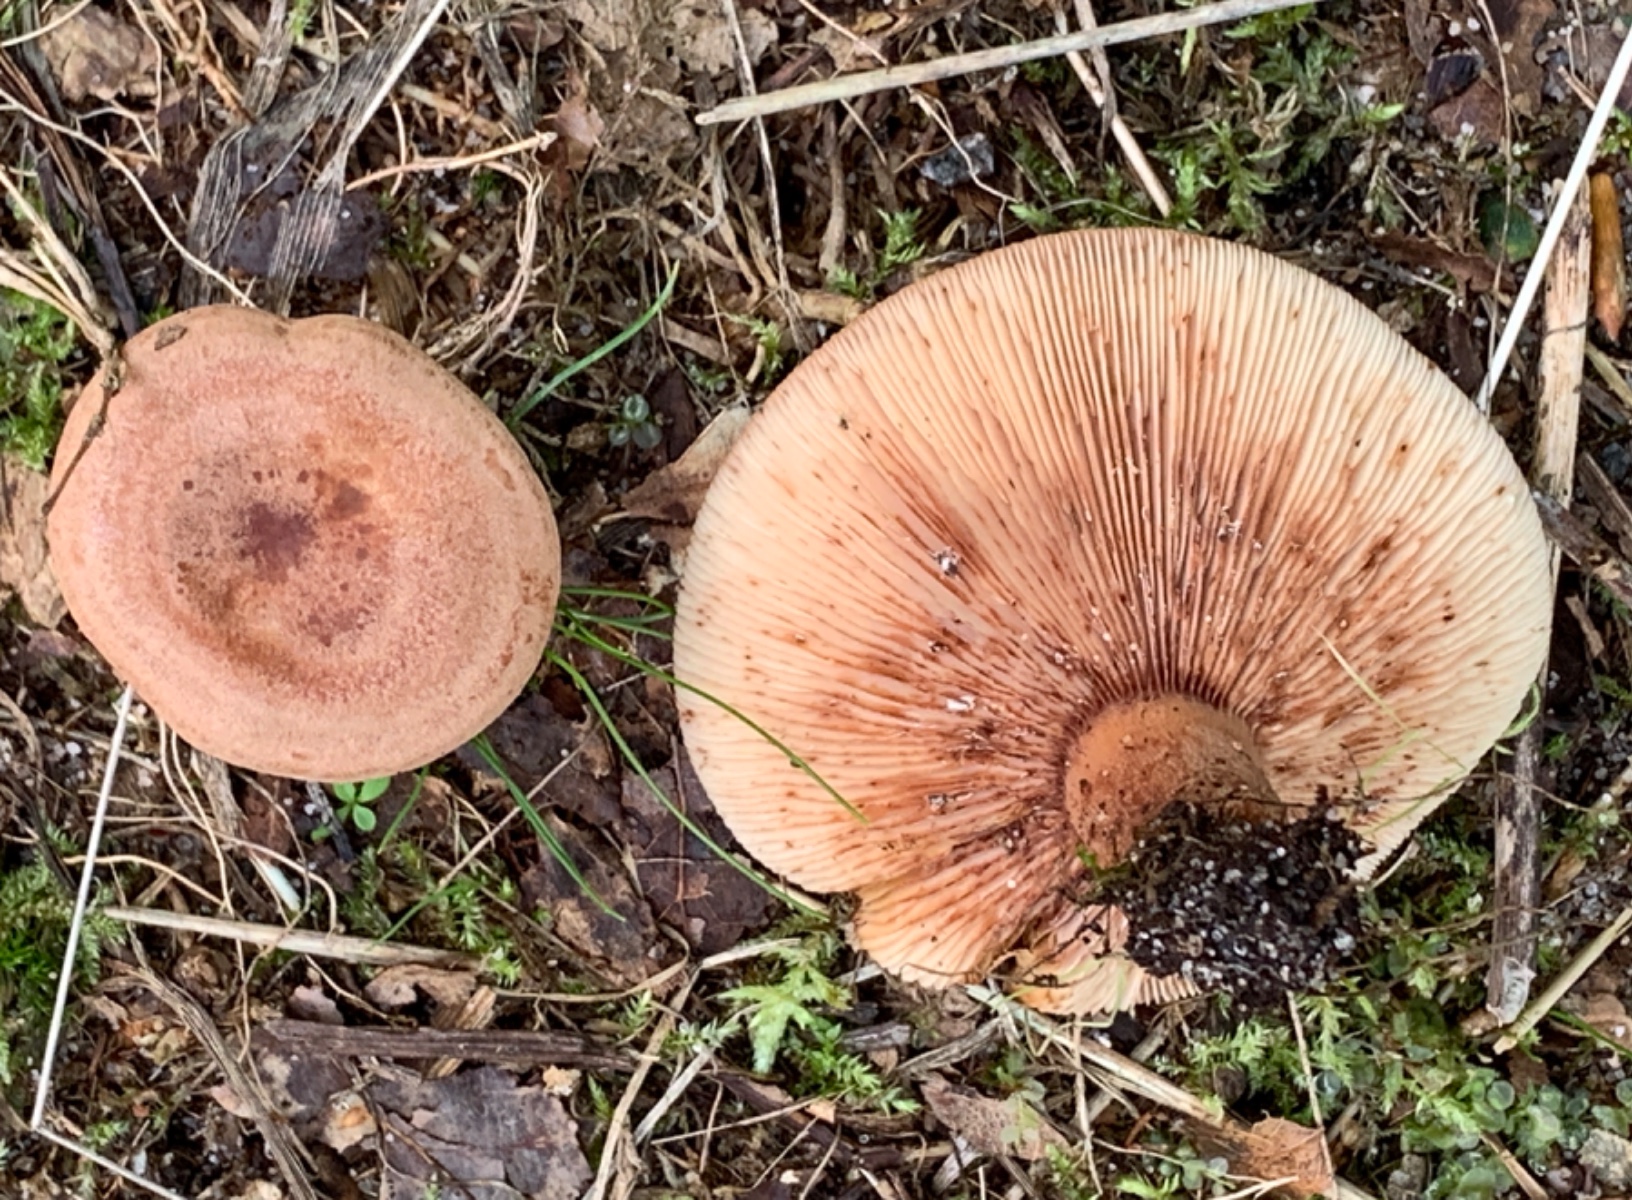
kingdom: Fungi
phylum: Basidiomycota
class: Agaricomycetes
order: Russulales
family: Russulaceae
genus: Lactarius
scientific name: Lactarius quietus
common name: ege-mælkehat
